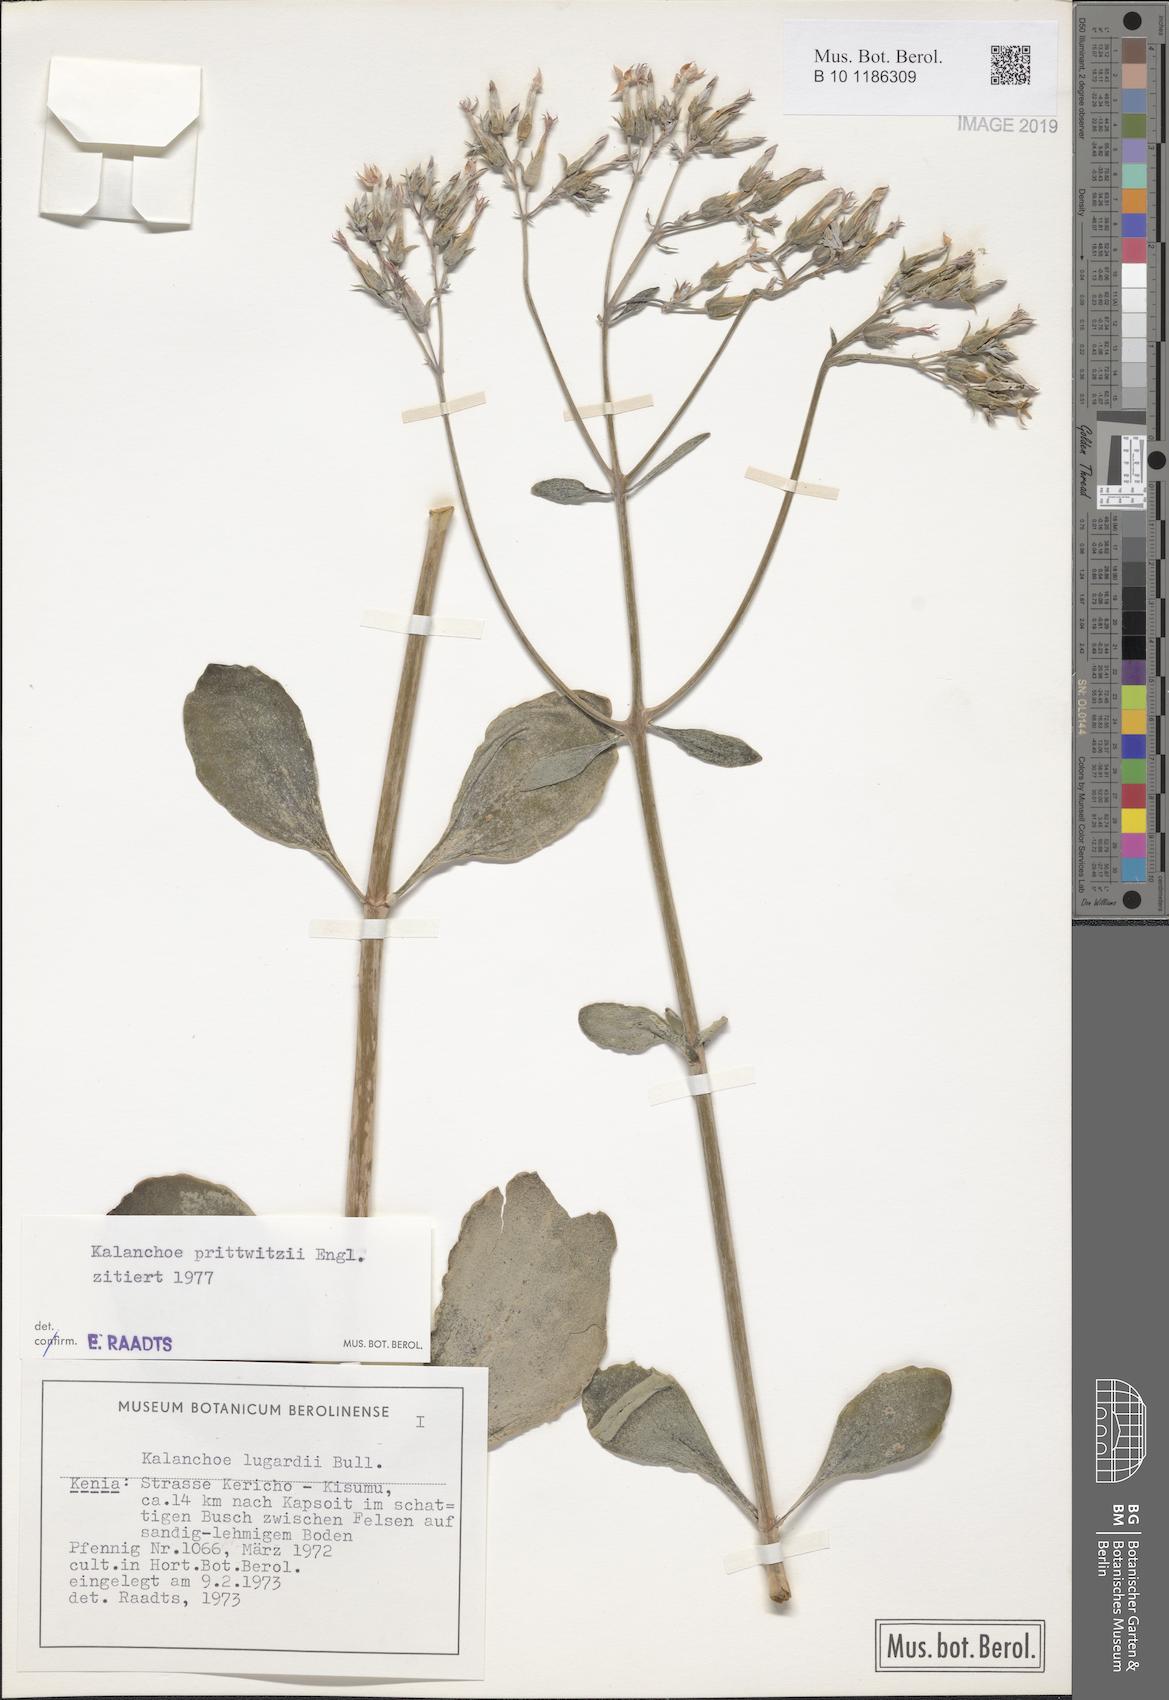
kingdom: Plantae
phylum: Tracheophyta
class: Magnoliopsida
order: Saxifragales
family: Crassulaceae
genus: Kalanchoe
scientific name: Kalanchoe prittwitzii
